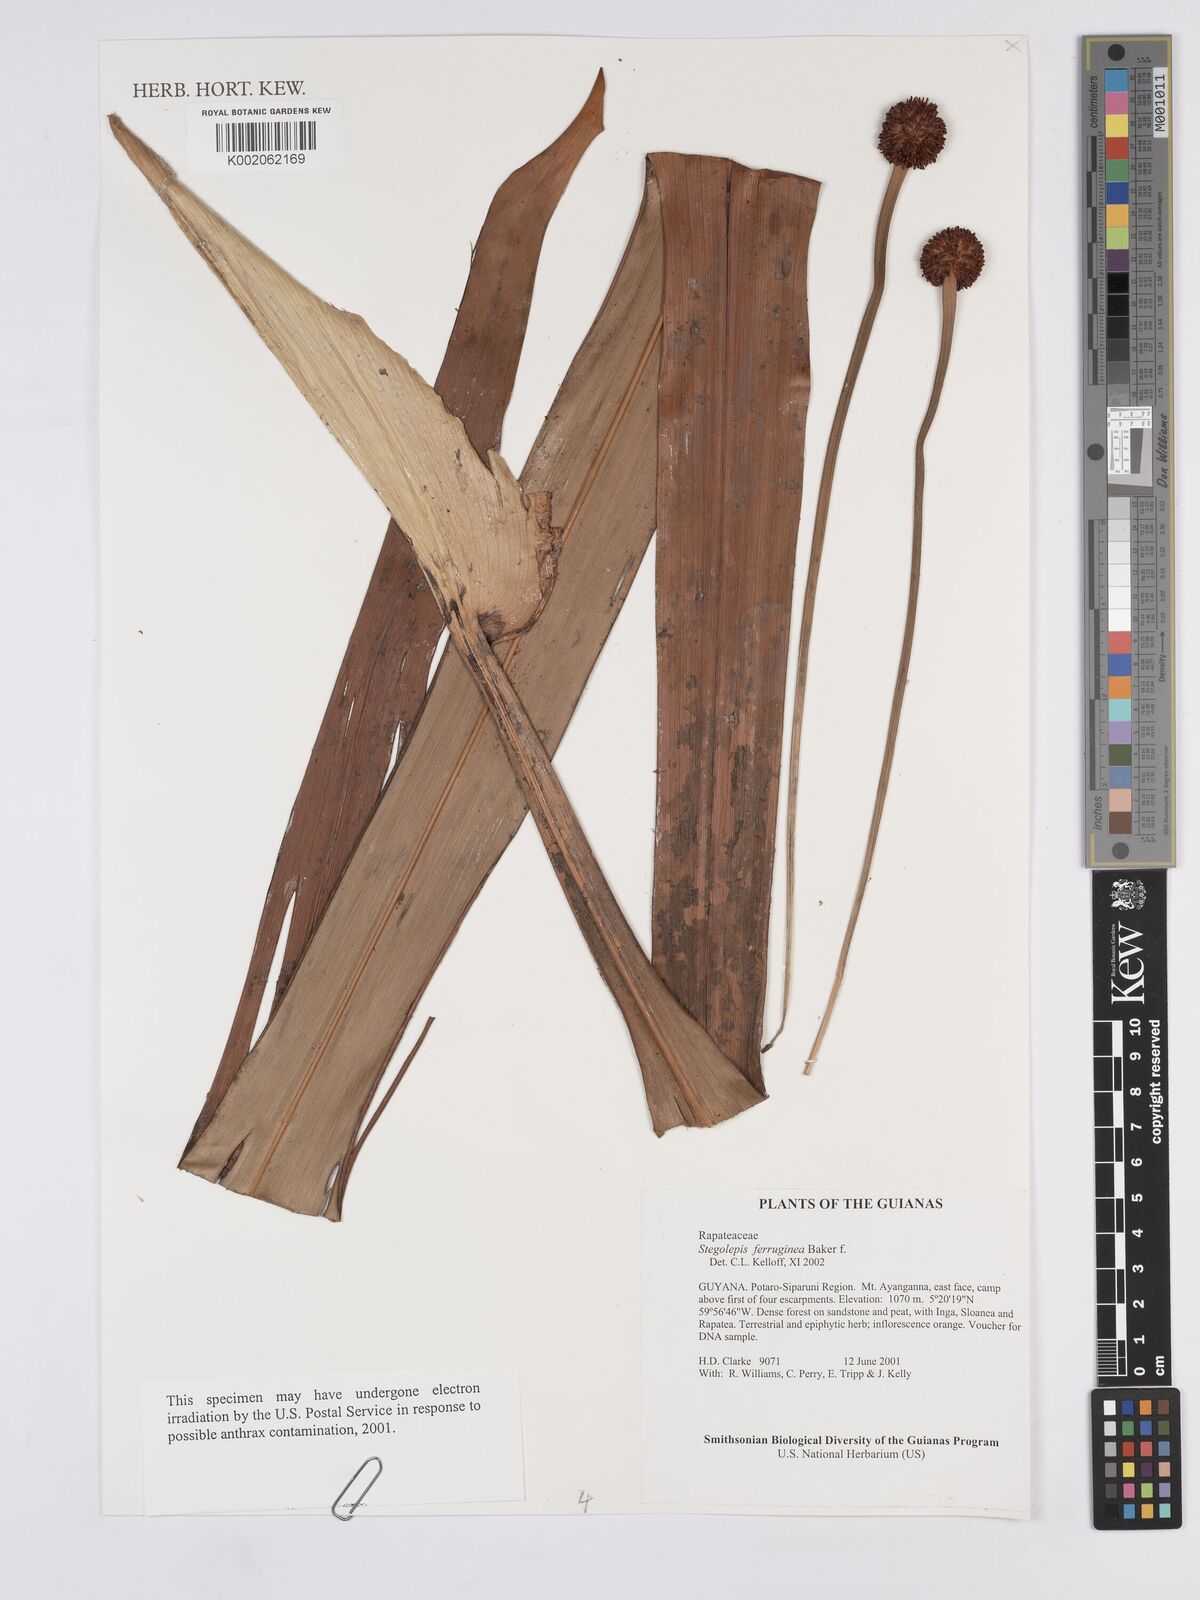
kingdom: Plantae
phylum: Tracheophyta
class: Liliopsida
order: Poales
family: Rapateaceae
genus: Stegolepis
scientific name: Stegolepis ferruginea
